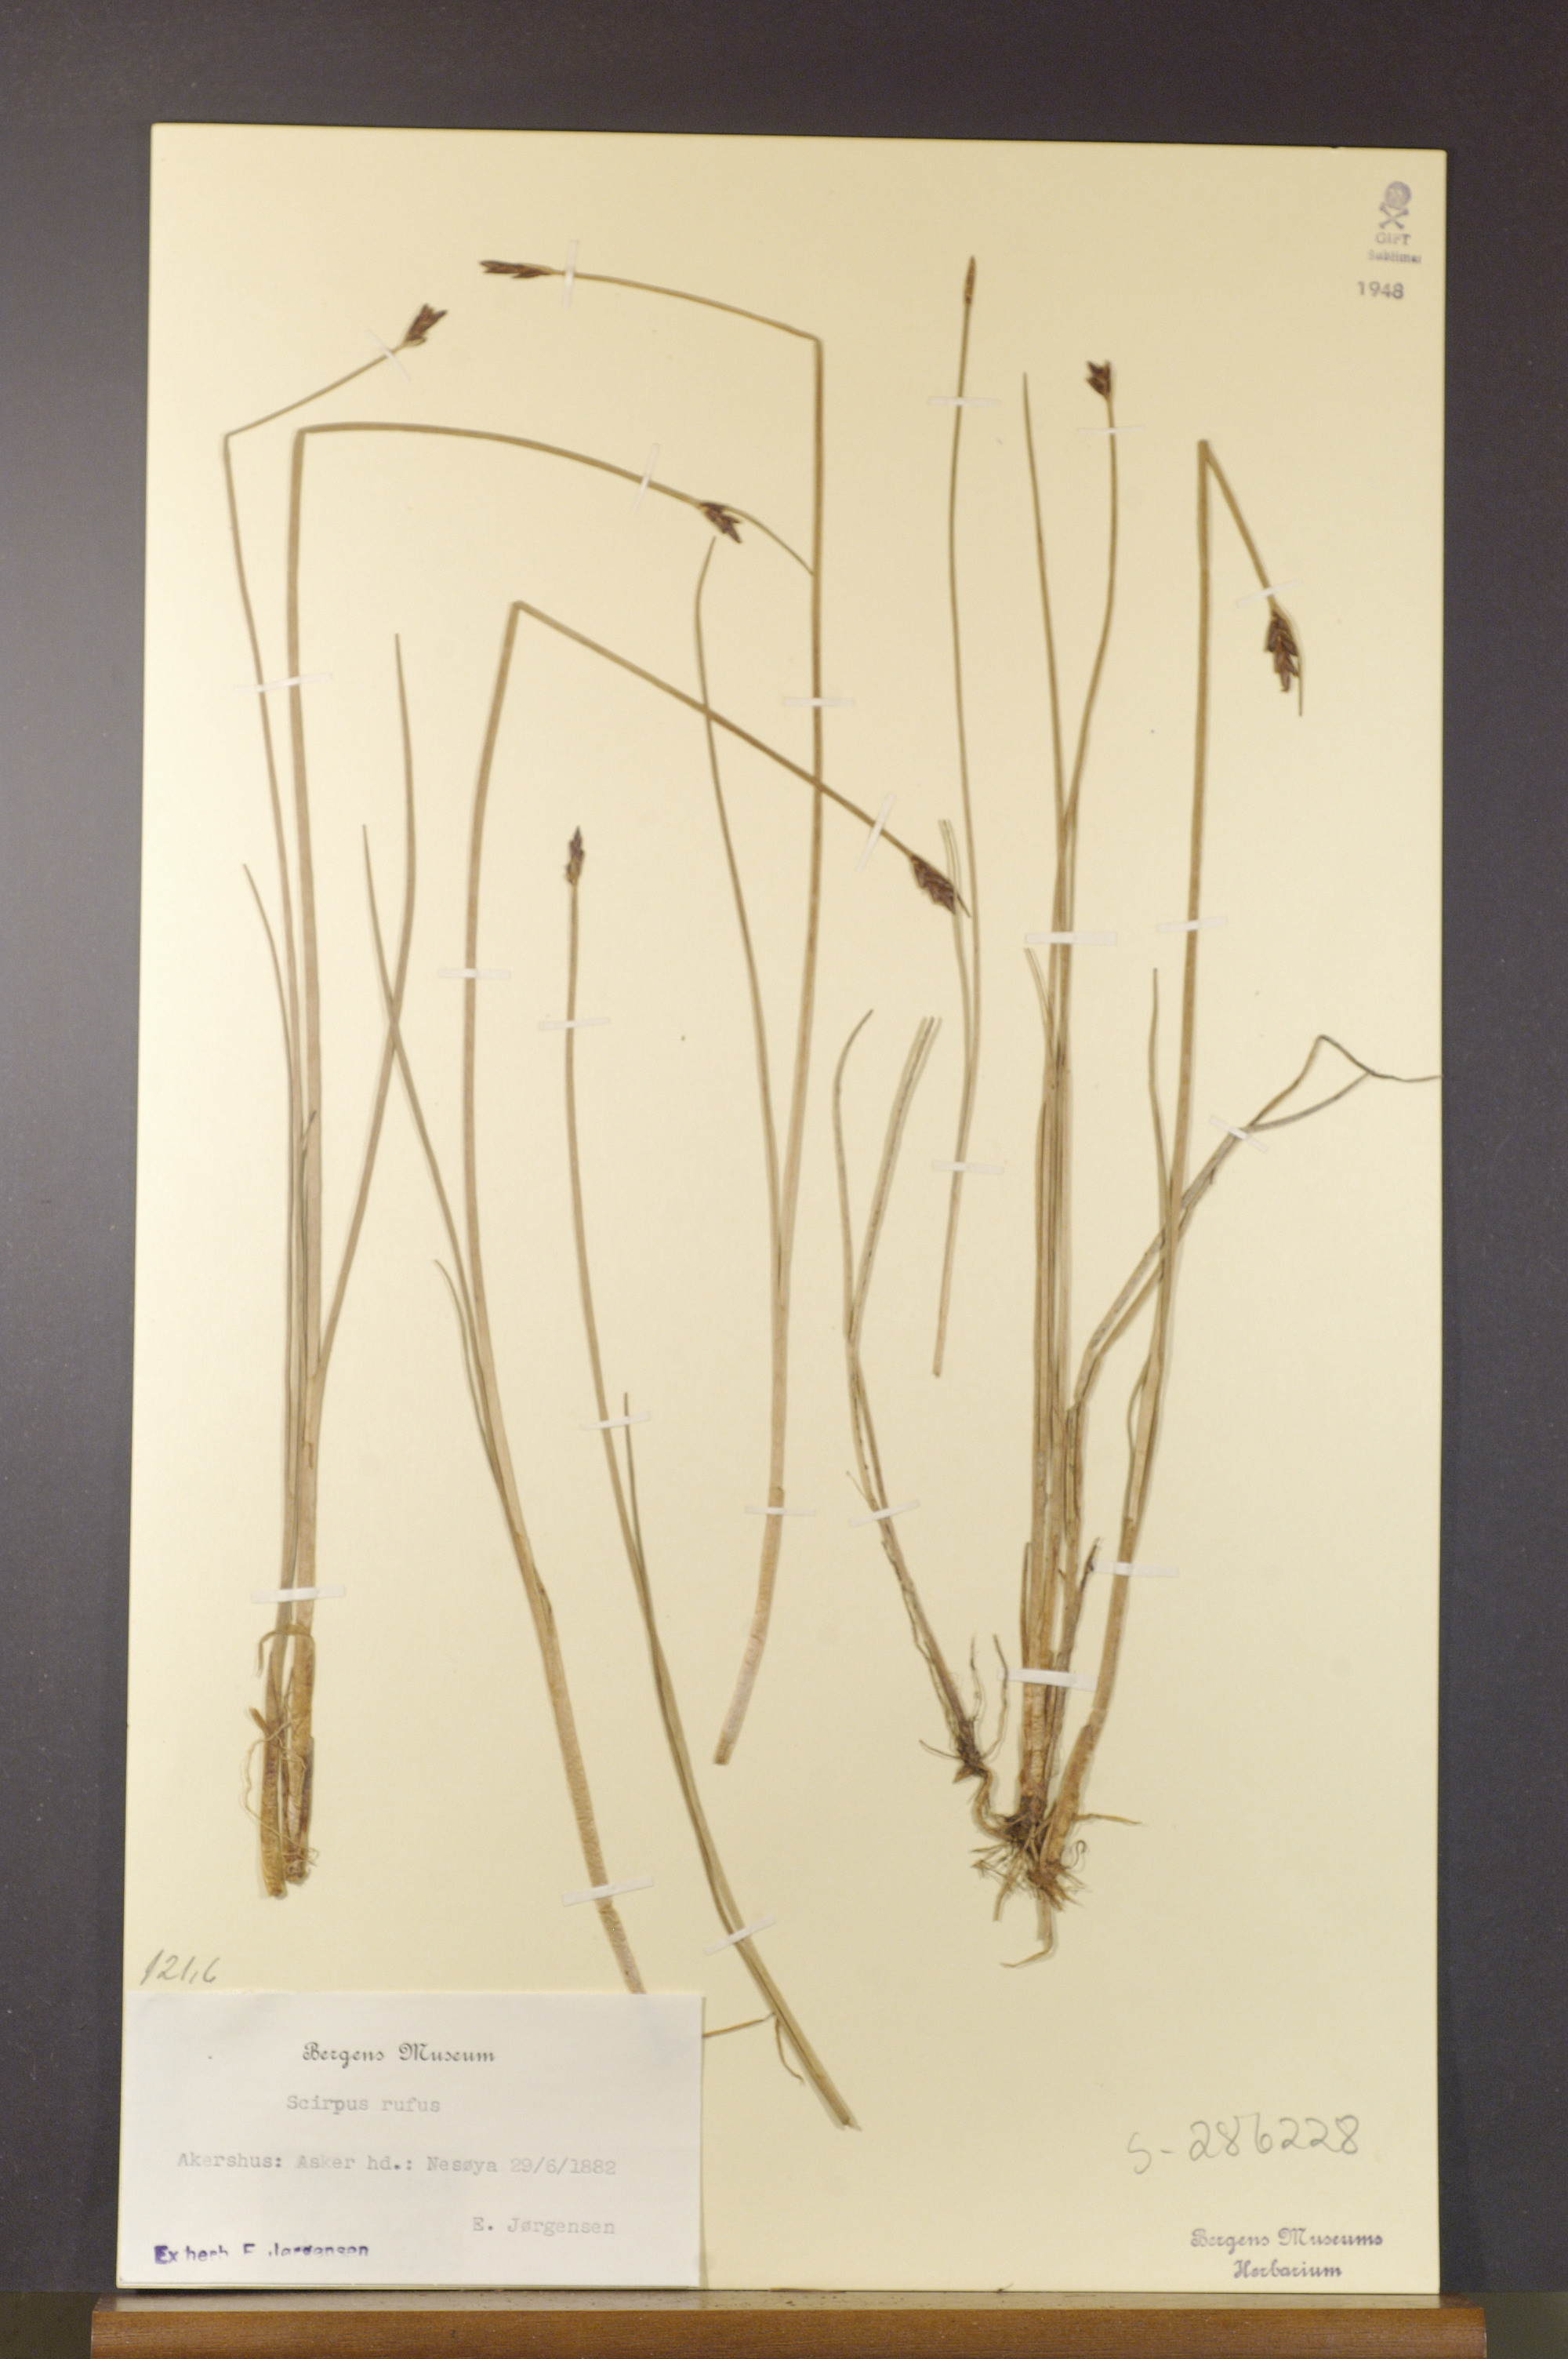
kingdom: Plantae
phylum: Tracheophyta
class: Liliopsida
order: Poales
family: Cyperaceae
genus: Blysmus
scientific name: Blysmus rufus
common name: Saltmarsh flat-sedge
